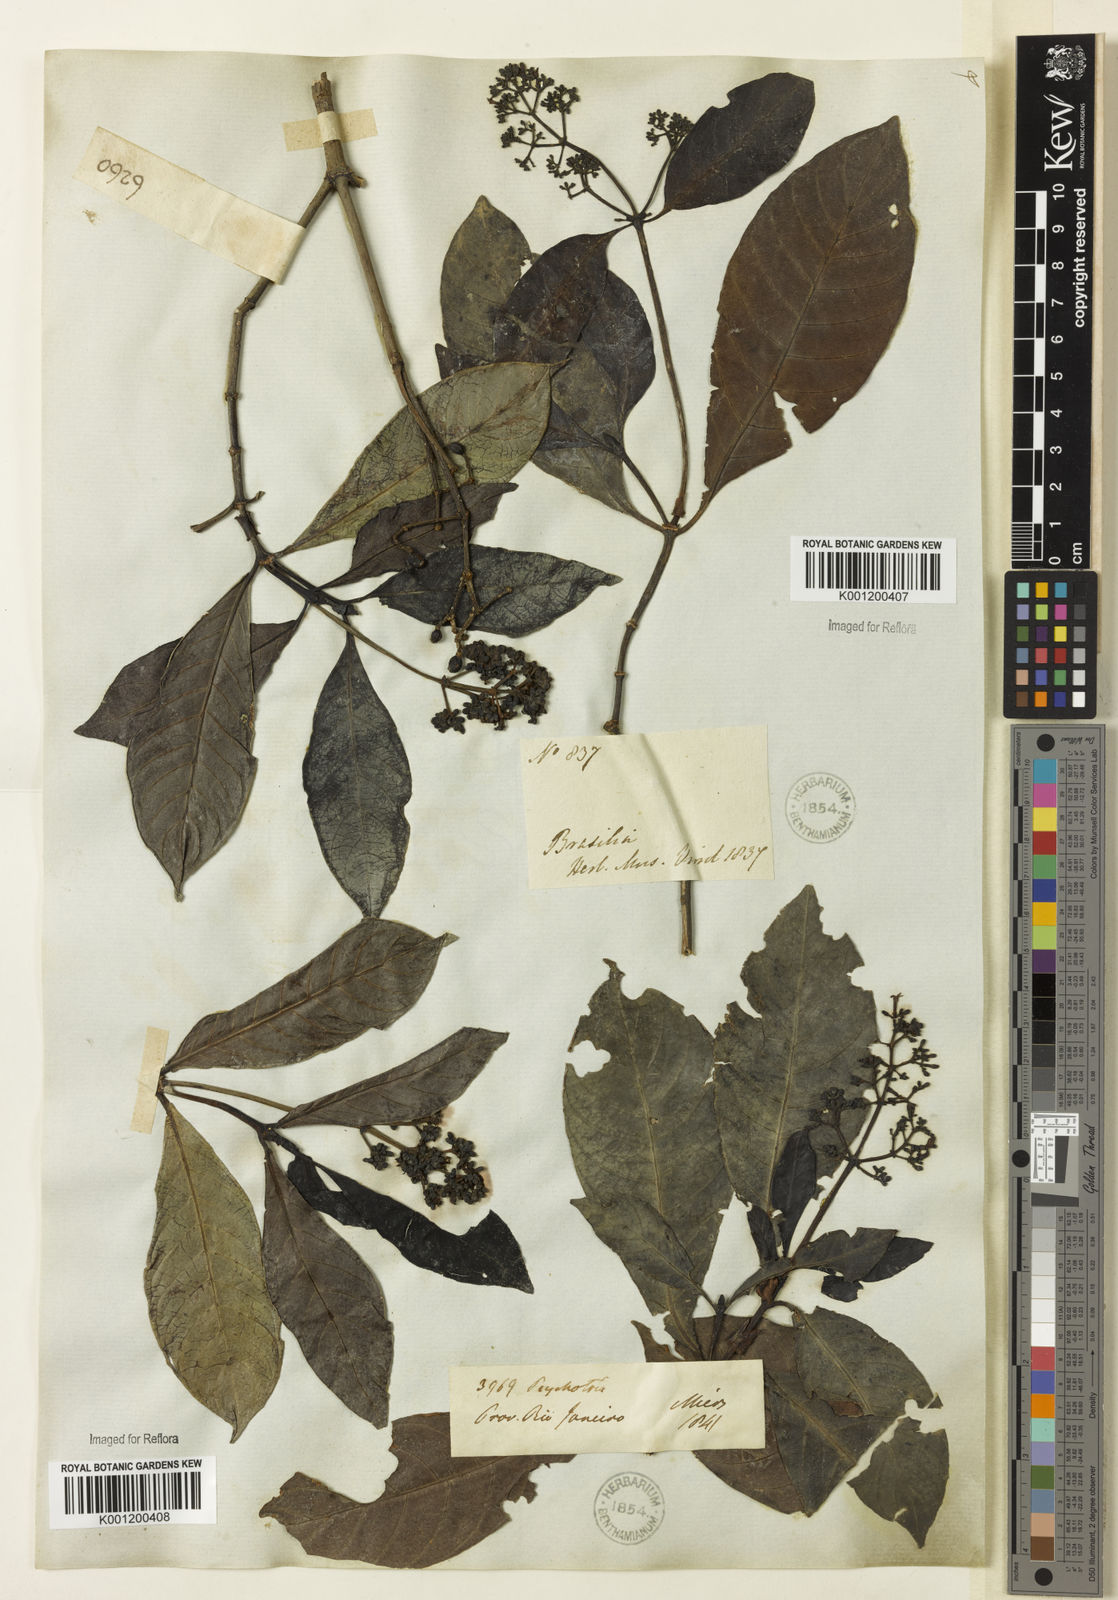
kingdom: Plantae
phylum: Tracheophyta
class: Magnoliopsida
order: Gentianales
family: Rubiaceae
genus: Psychotria
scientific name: Psychotria carthagenensis
